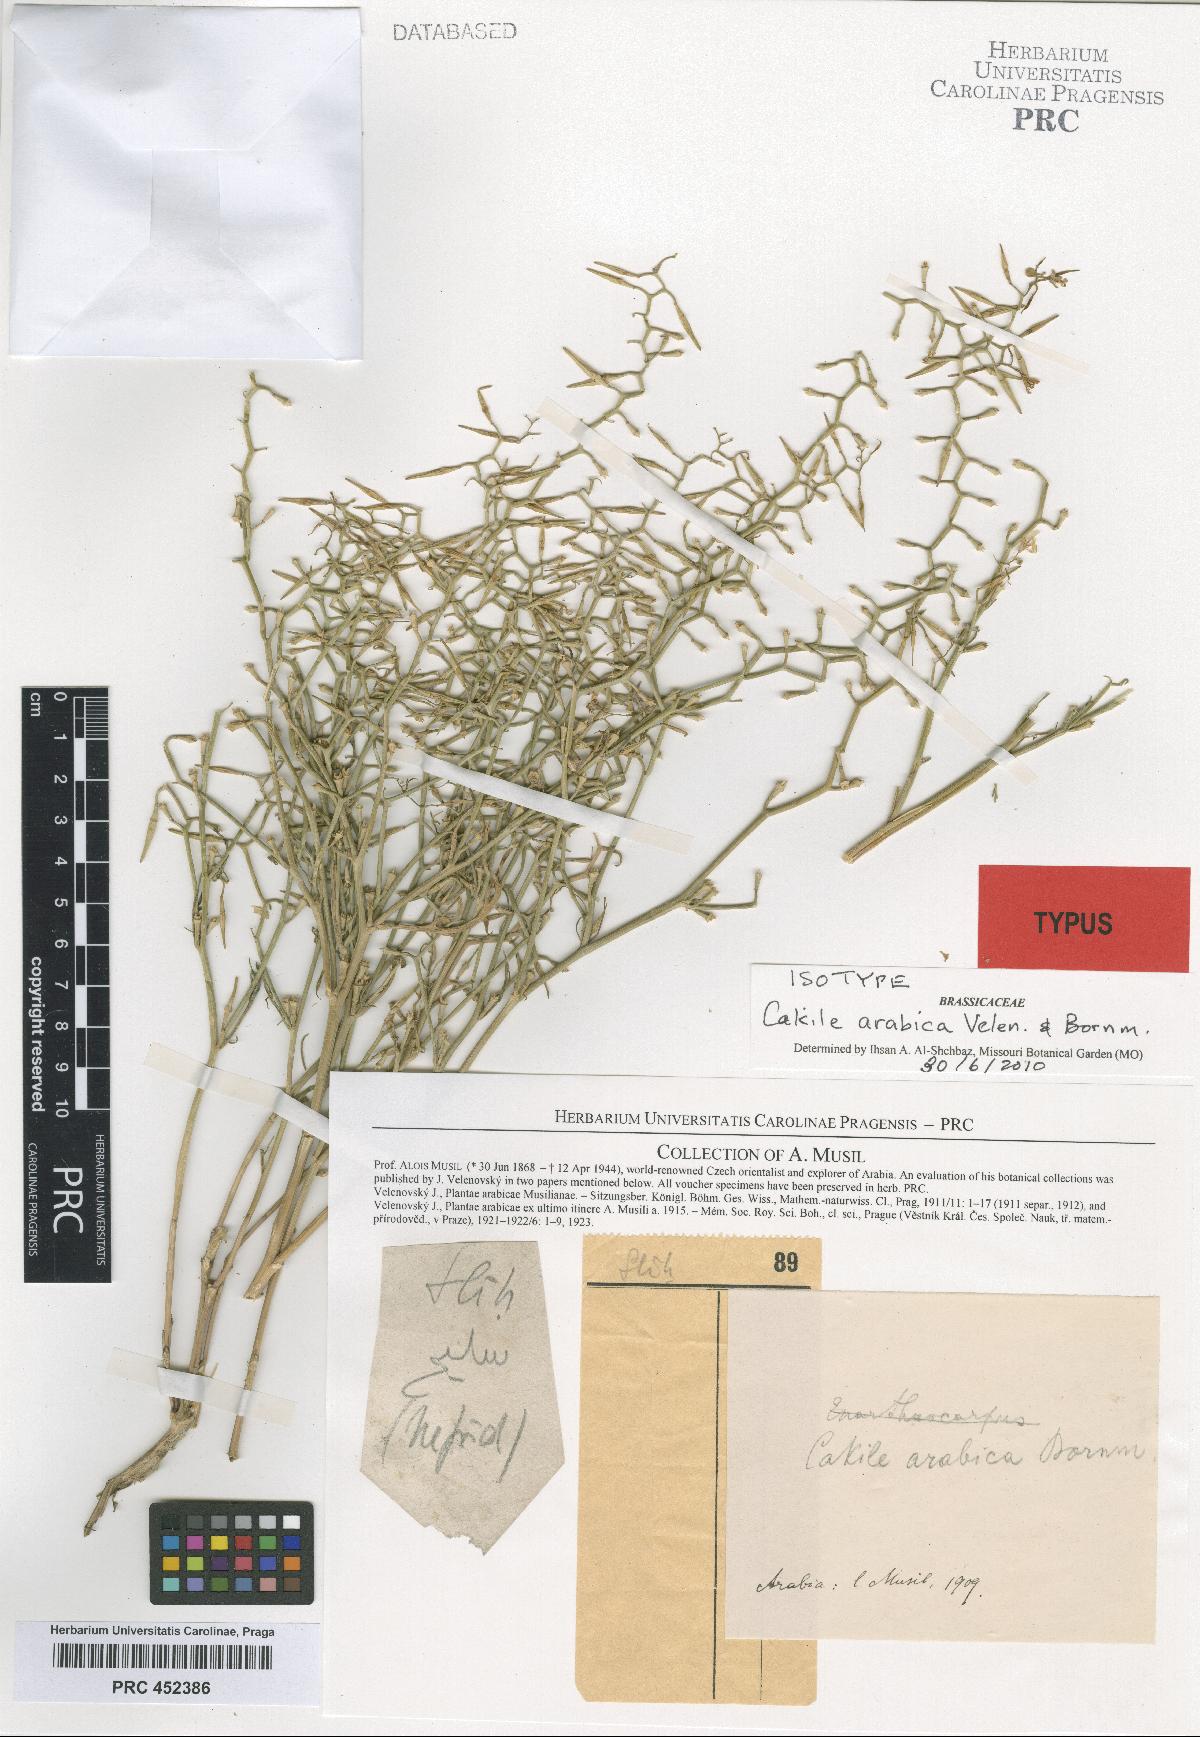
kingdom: Plantae
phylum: Tracheophyta
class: Magnoliopsida
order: Brassicales
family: Brassicaceae
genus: Cakile
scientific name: Cakile arabica
